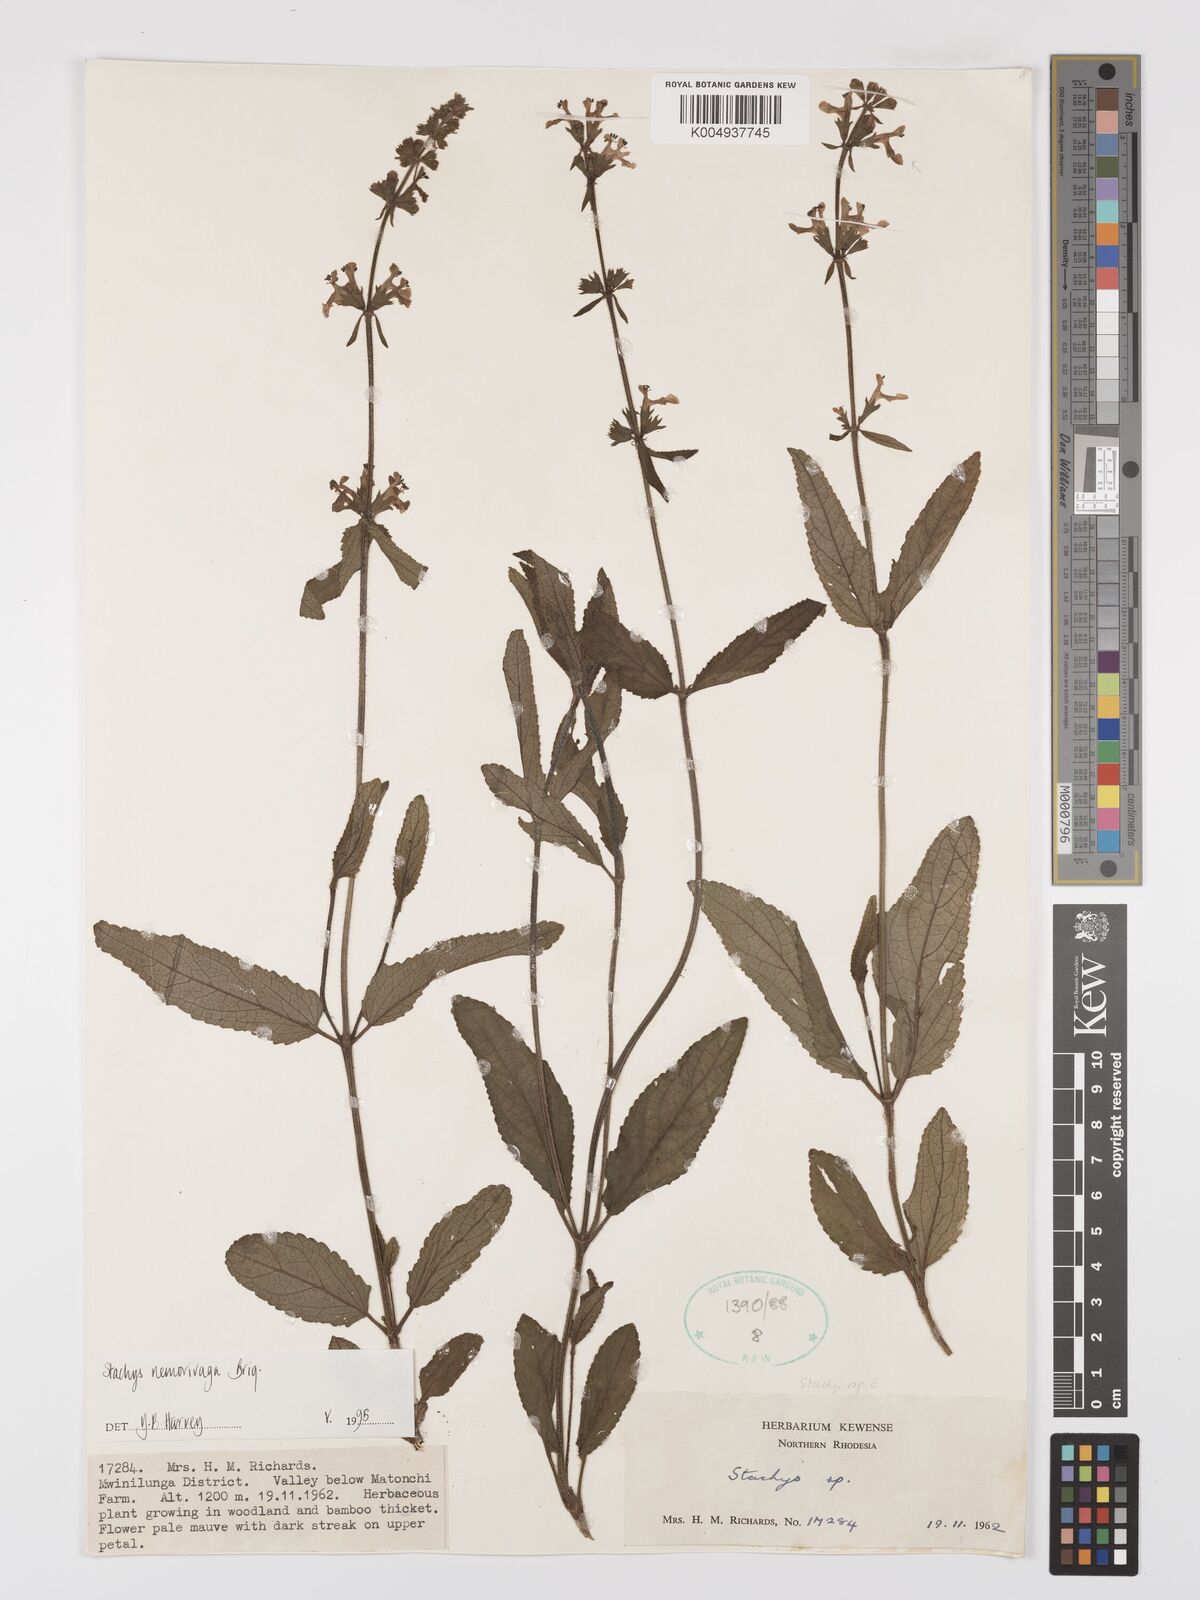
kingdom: Plantae
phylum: Tracheophyta
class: Magnoliopsida
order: Lamiales
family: Lamiaceae
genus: Stachys
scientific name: Stachys nemorivaga
